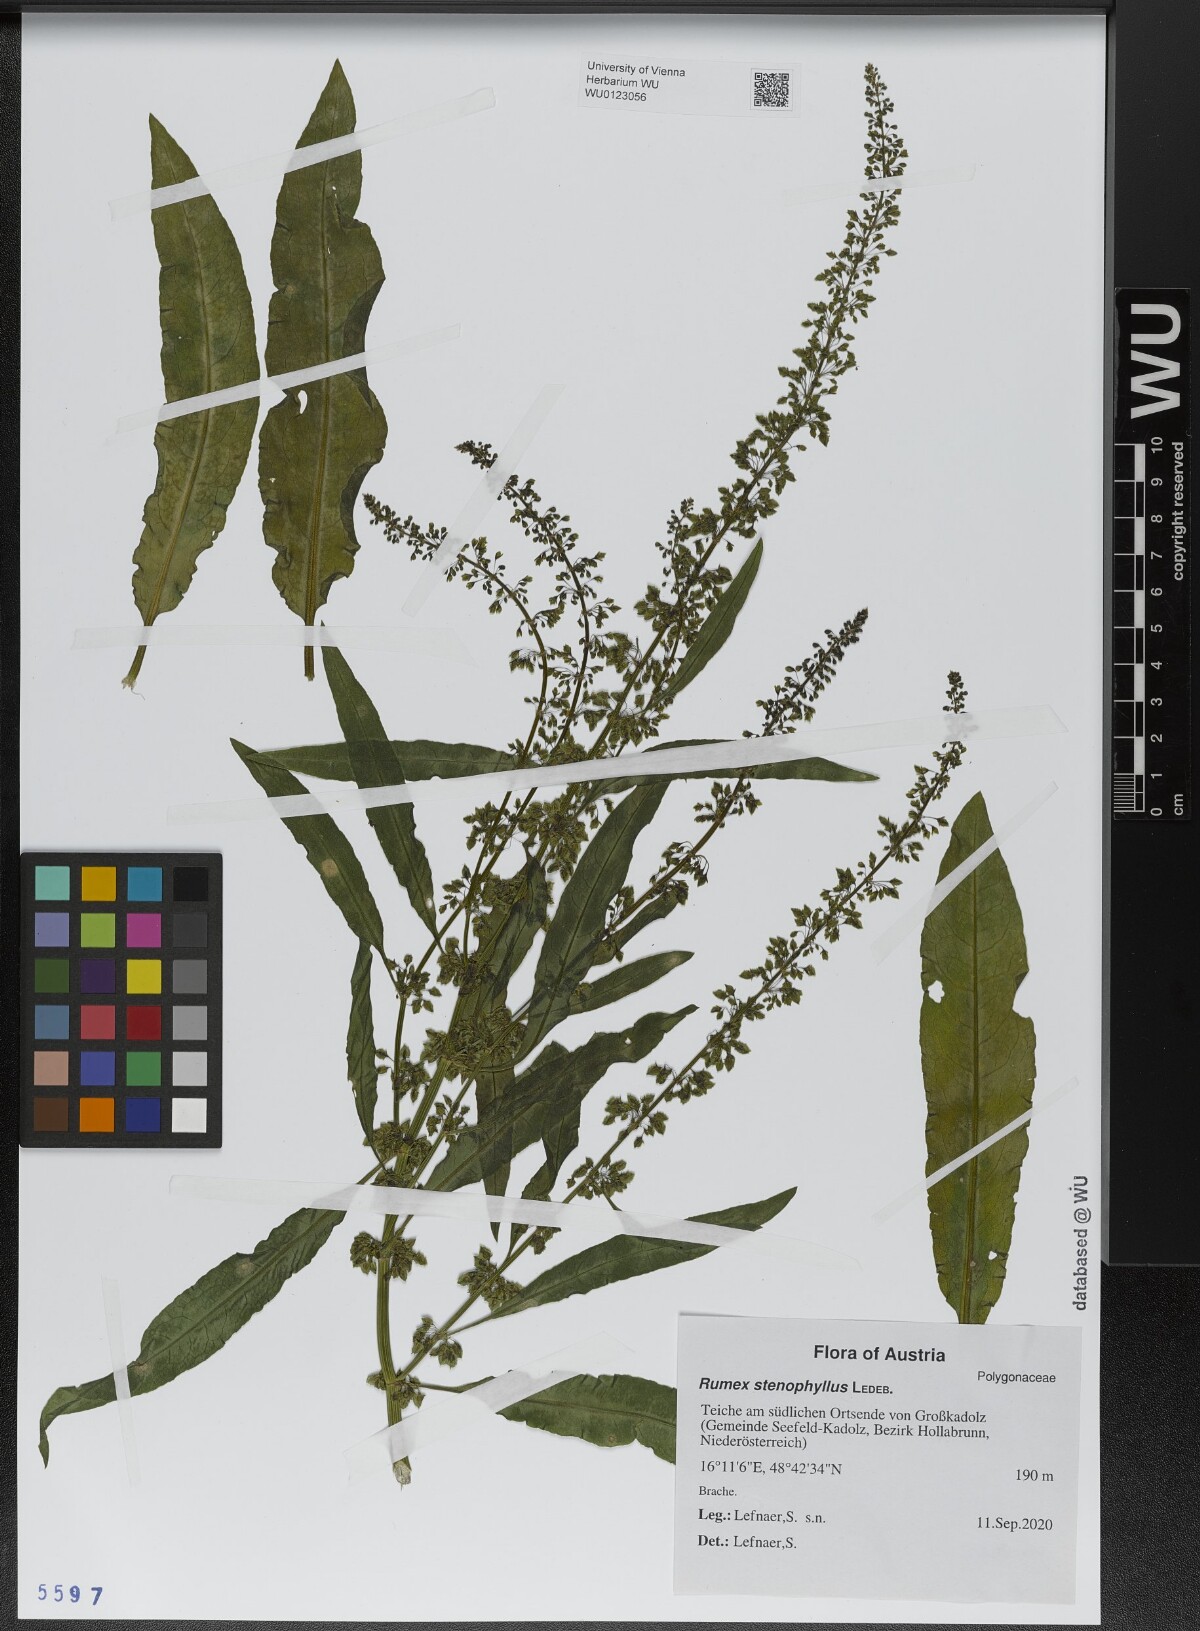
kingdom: Plantae
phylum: Tracheophyta
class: Magnoliopsida
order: Caryophyllales
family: Polygonaceae
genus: Rumex
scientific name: Rumex stenophyllus
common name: Narrowleaf dock
